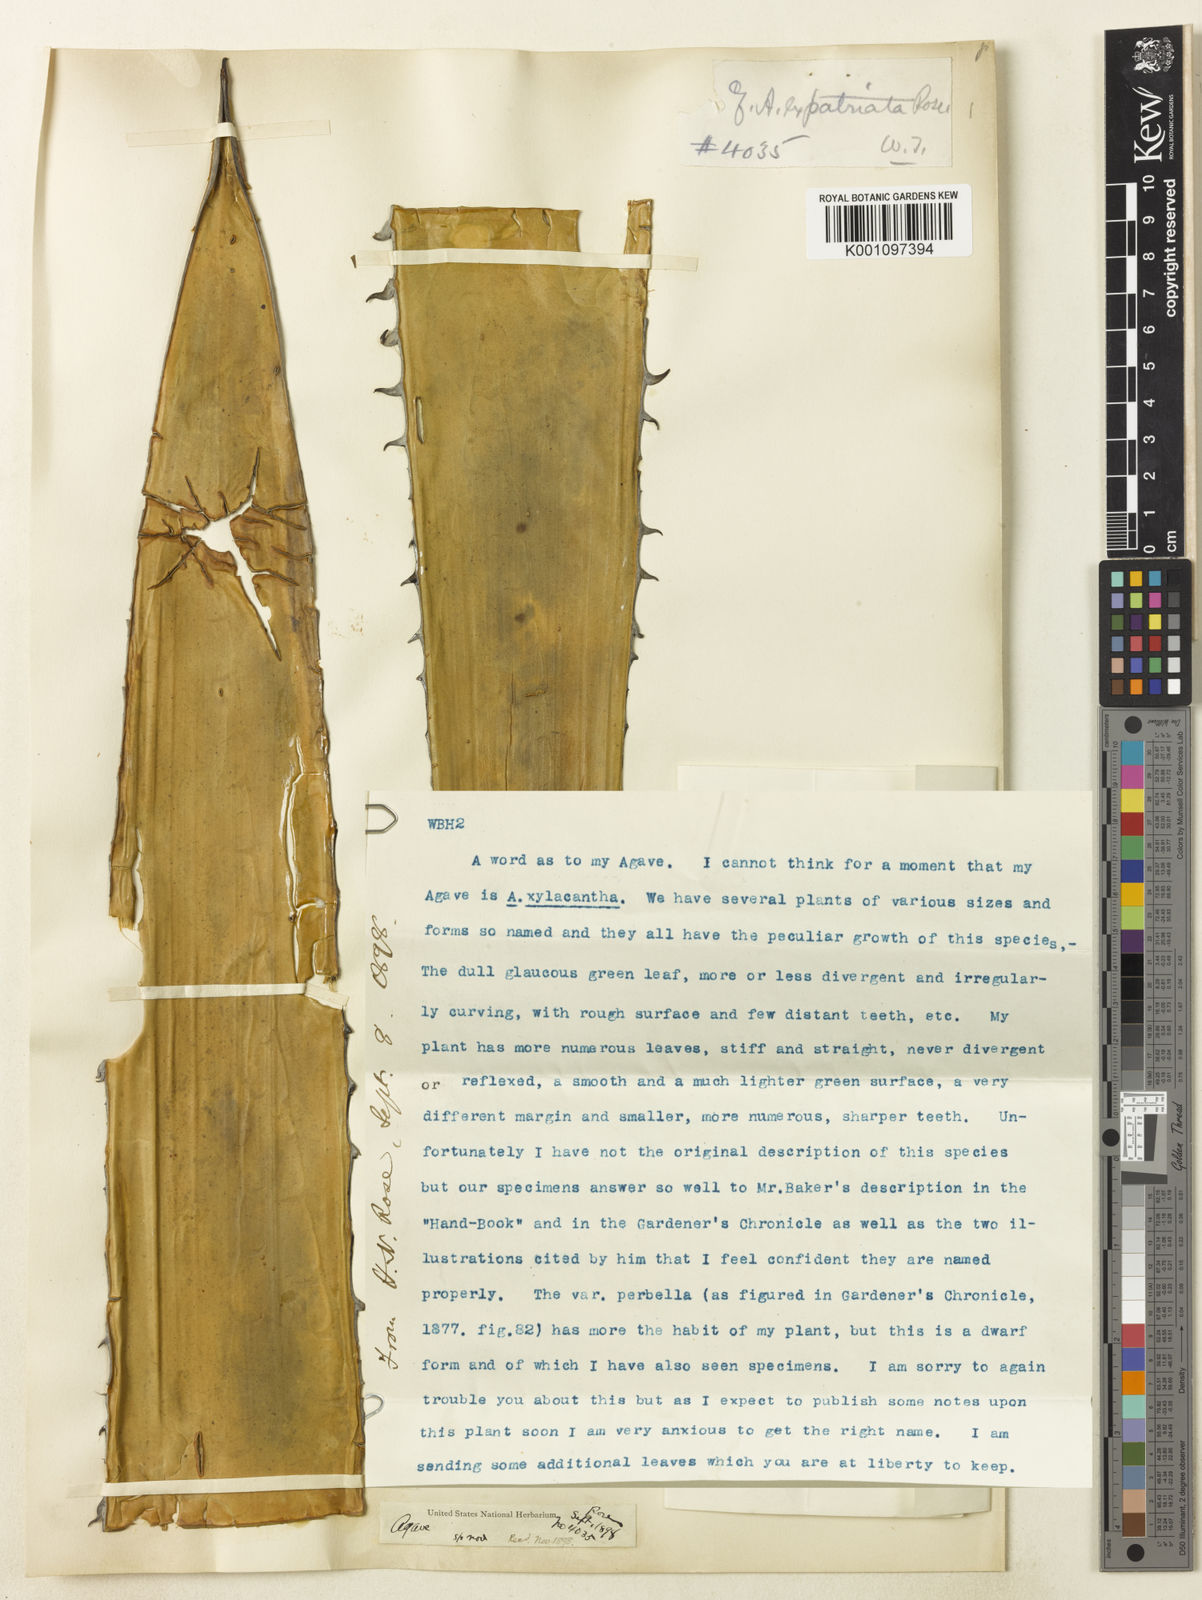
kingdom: Plantae
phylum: Tracheophyta
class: Liliopsida
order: Asparagales
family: Asparagaceae
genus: Agave
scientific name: Agave kerchovei
